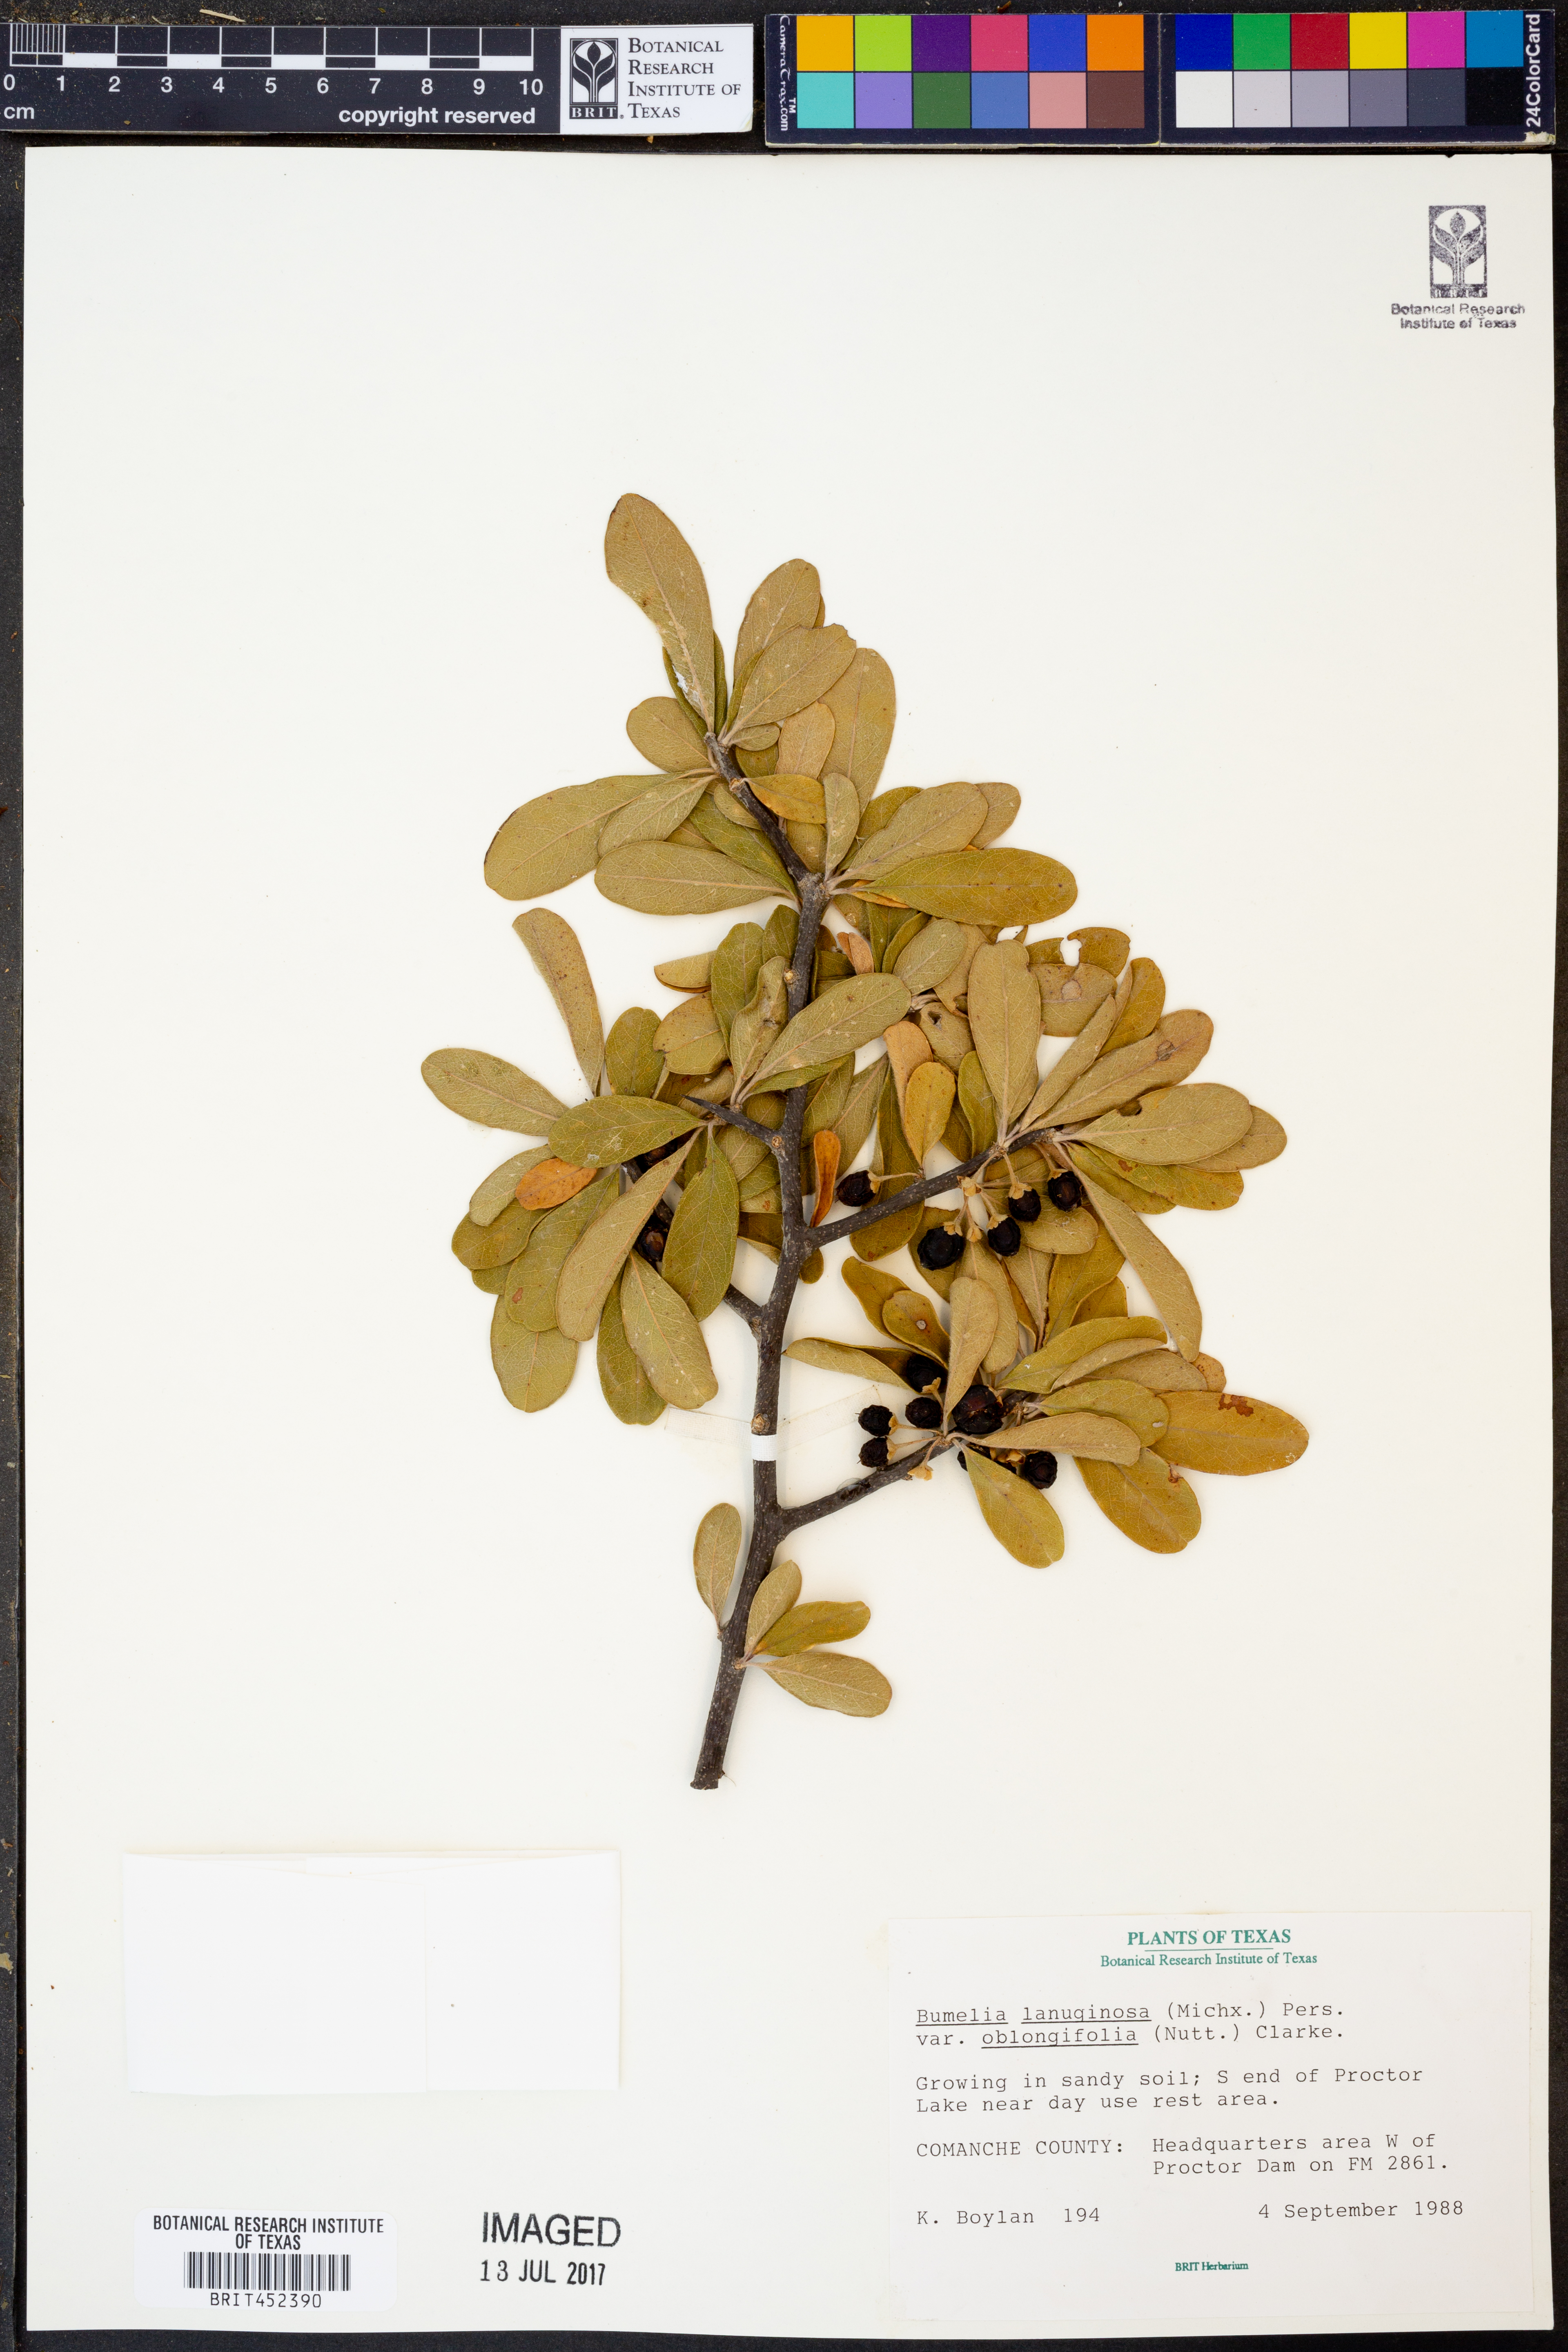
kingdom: Plantae
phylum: Tracheophyta
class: Magnoliopsida
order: Ericales
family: Sapotaceae
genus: Sideroxylon
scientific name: Sideroxylon lanuginosum
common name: Chittamwood
